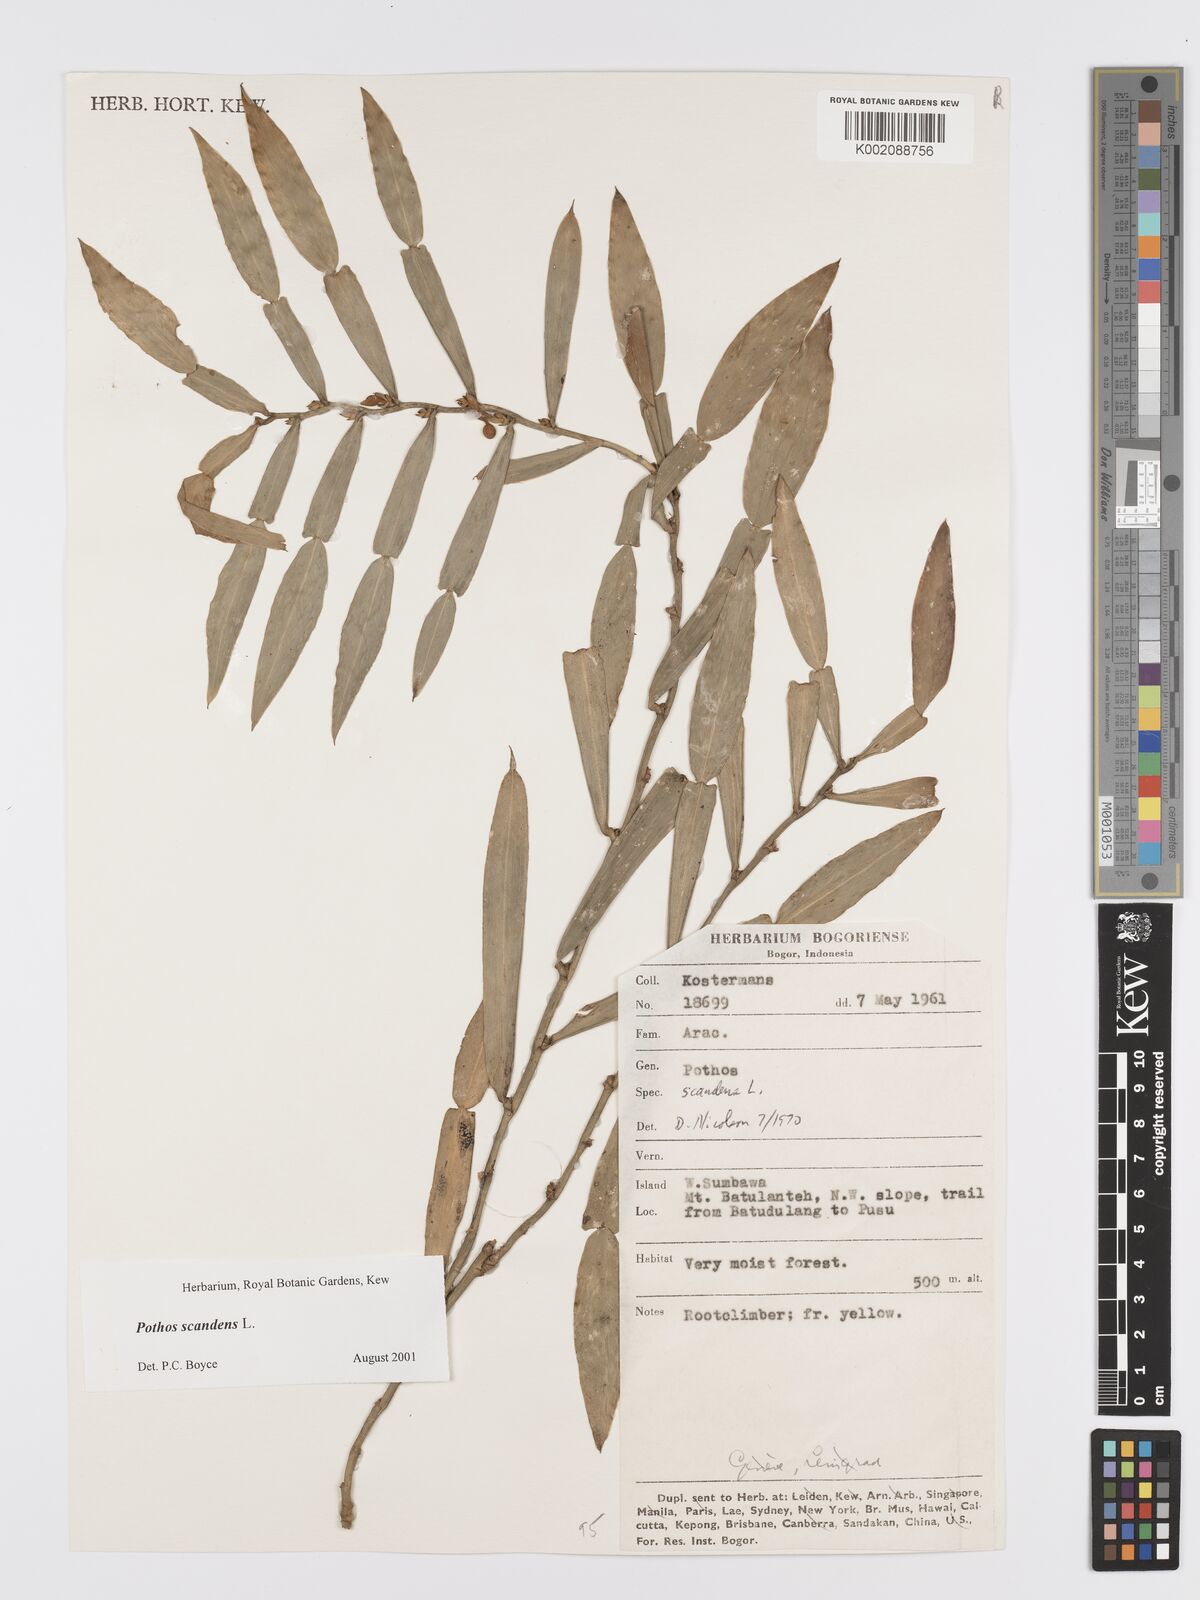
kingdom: Plantae
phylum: Tracheophyta
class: Liliopsida
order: Alismatales
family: Araceae
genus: Pothos
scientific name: Pothos scandens
